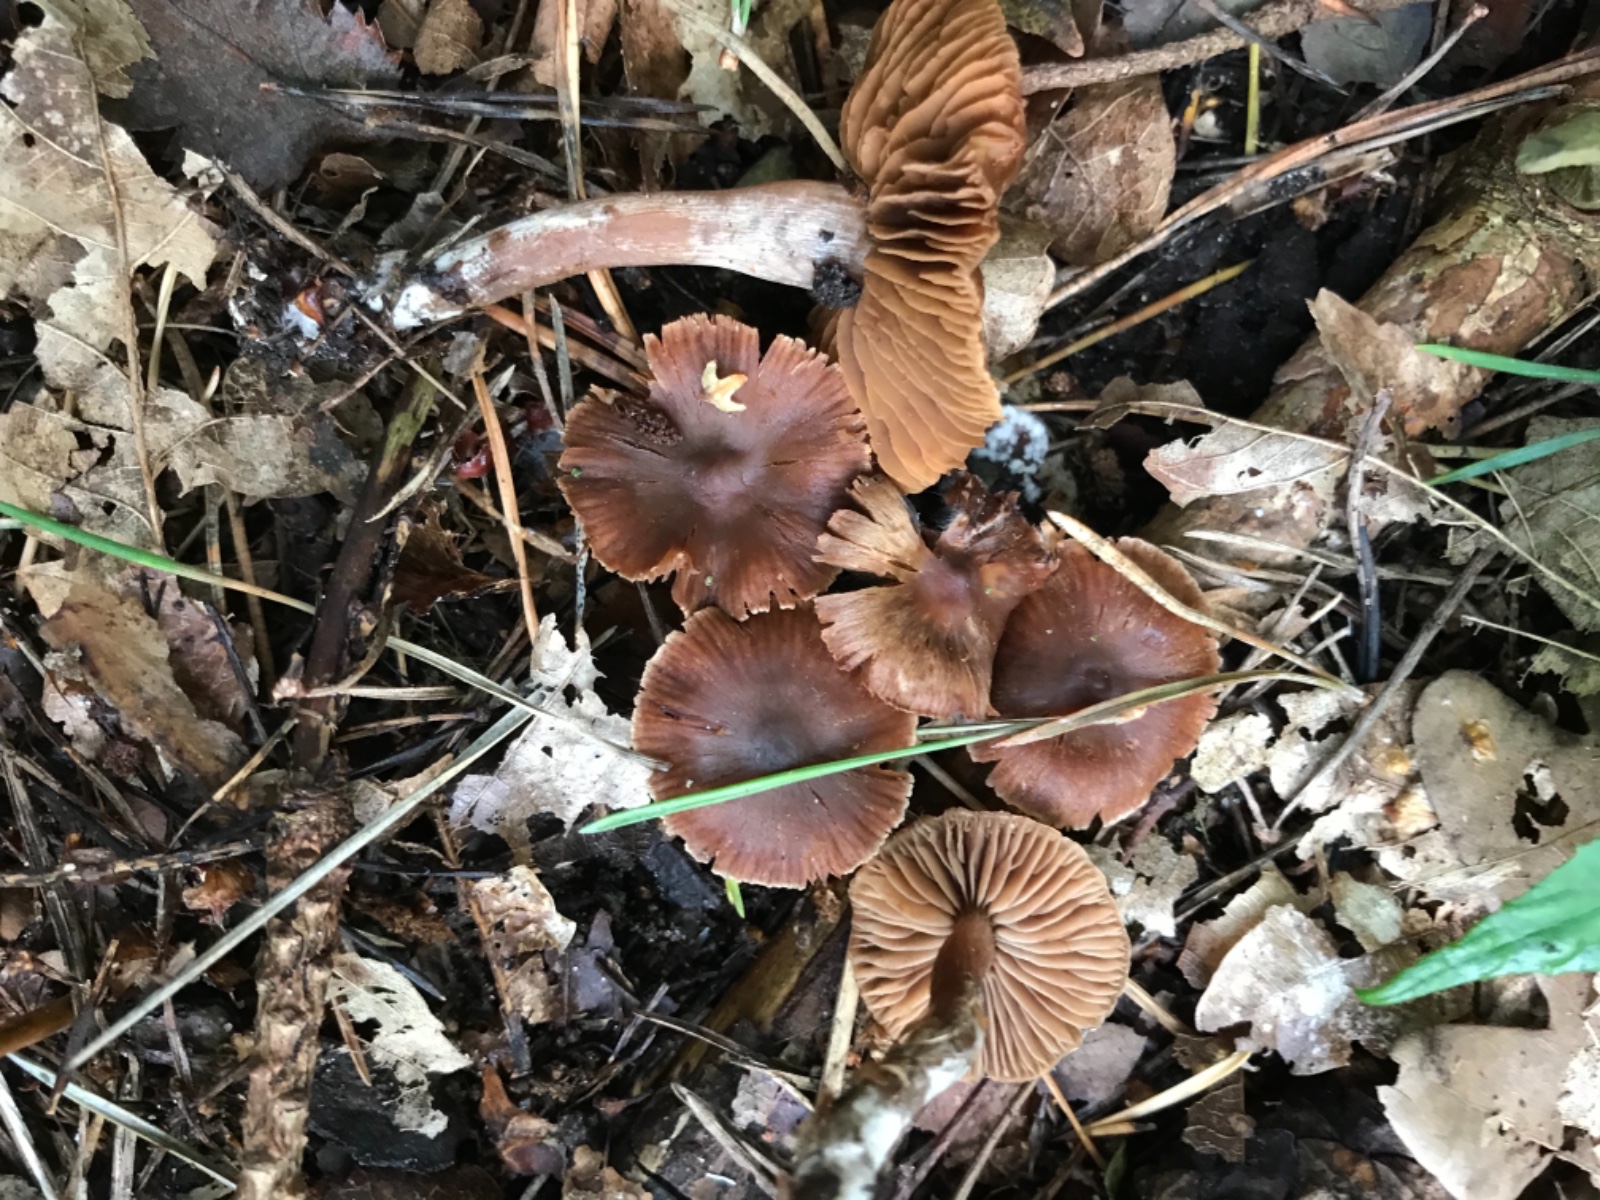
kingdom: Fungi
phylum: Basidiomycota
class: Agaricomycetes
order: Agaricales
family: Cortinariaceae
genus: Cortinarius
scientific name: Cortinarius russulaespermus
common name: finstribet slørhat
